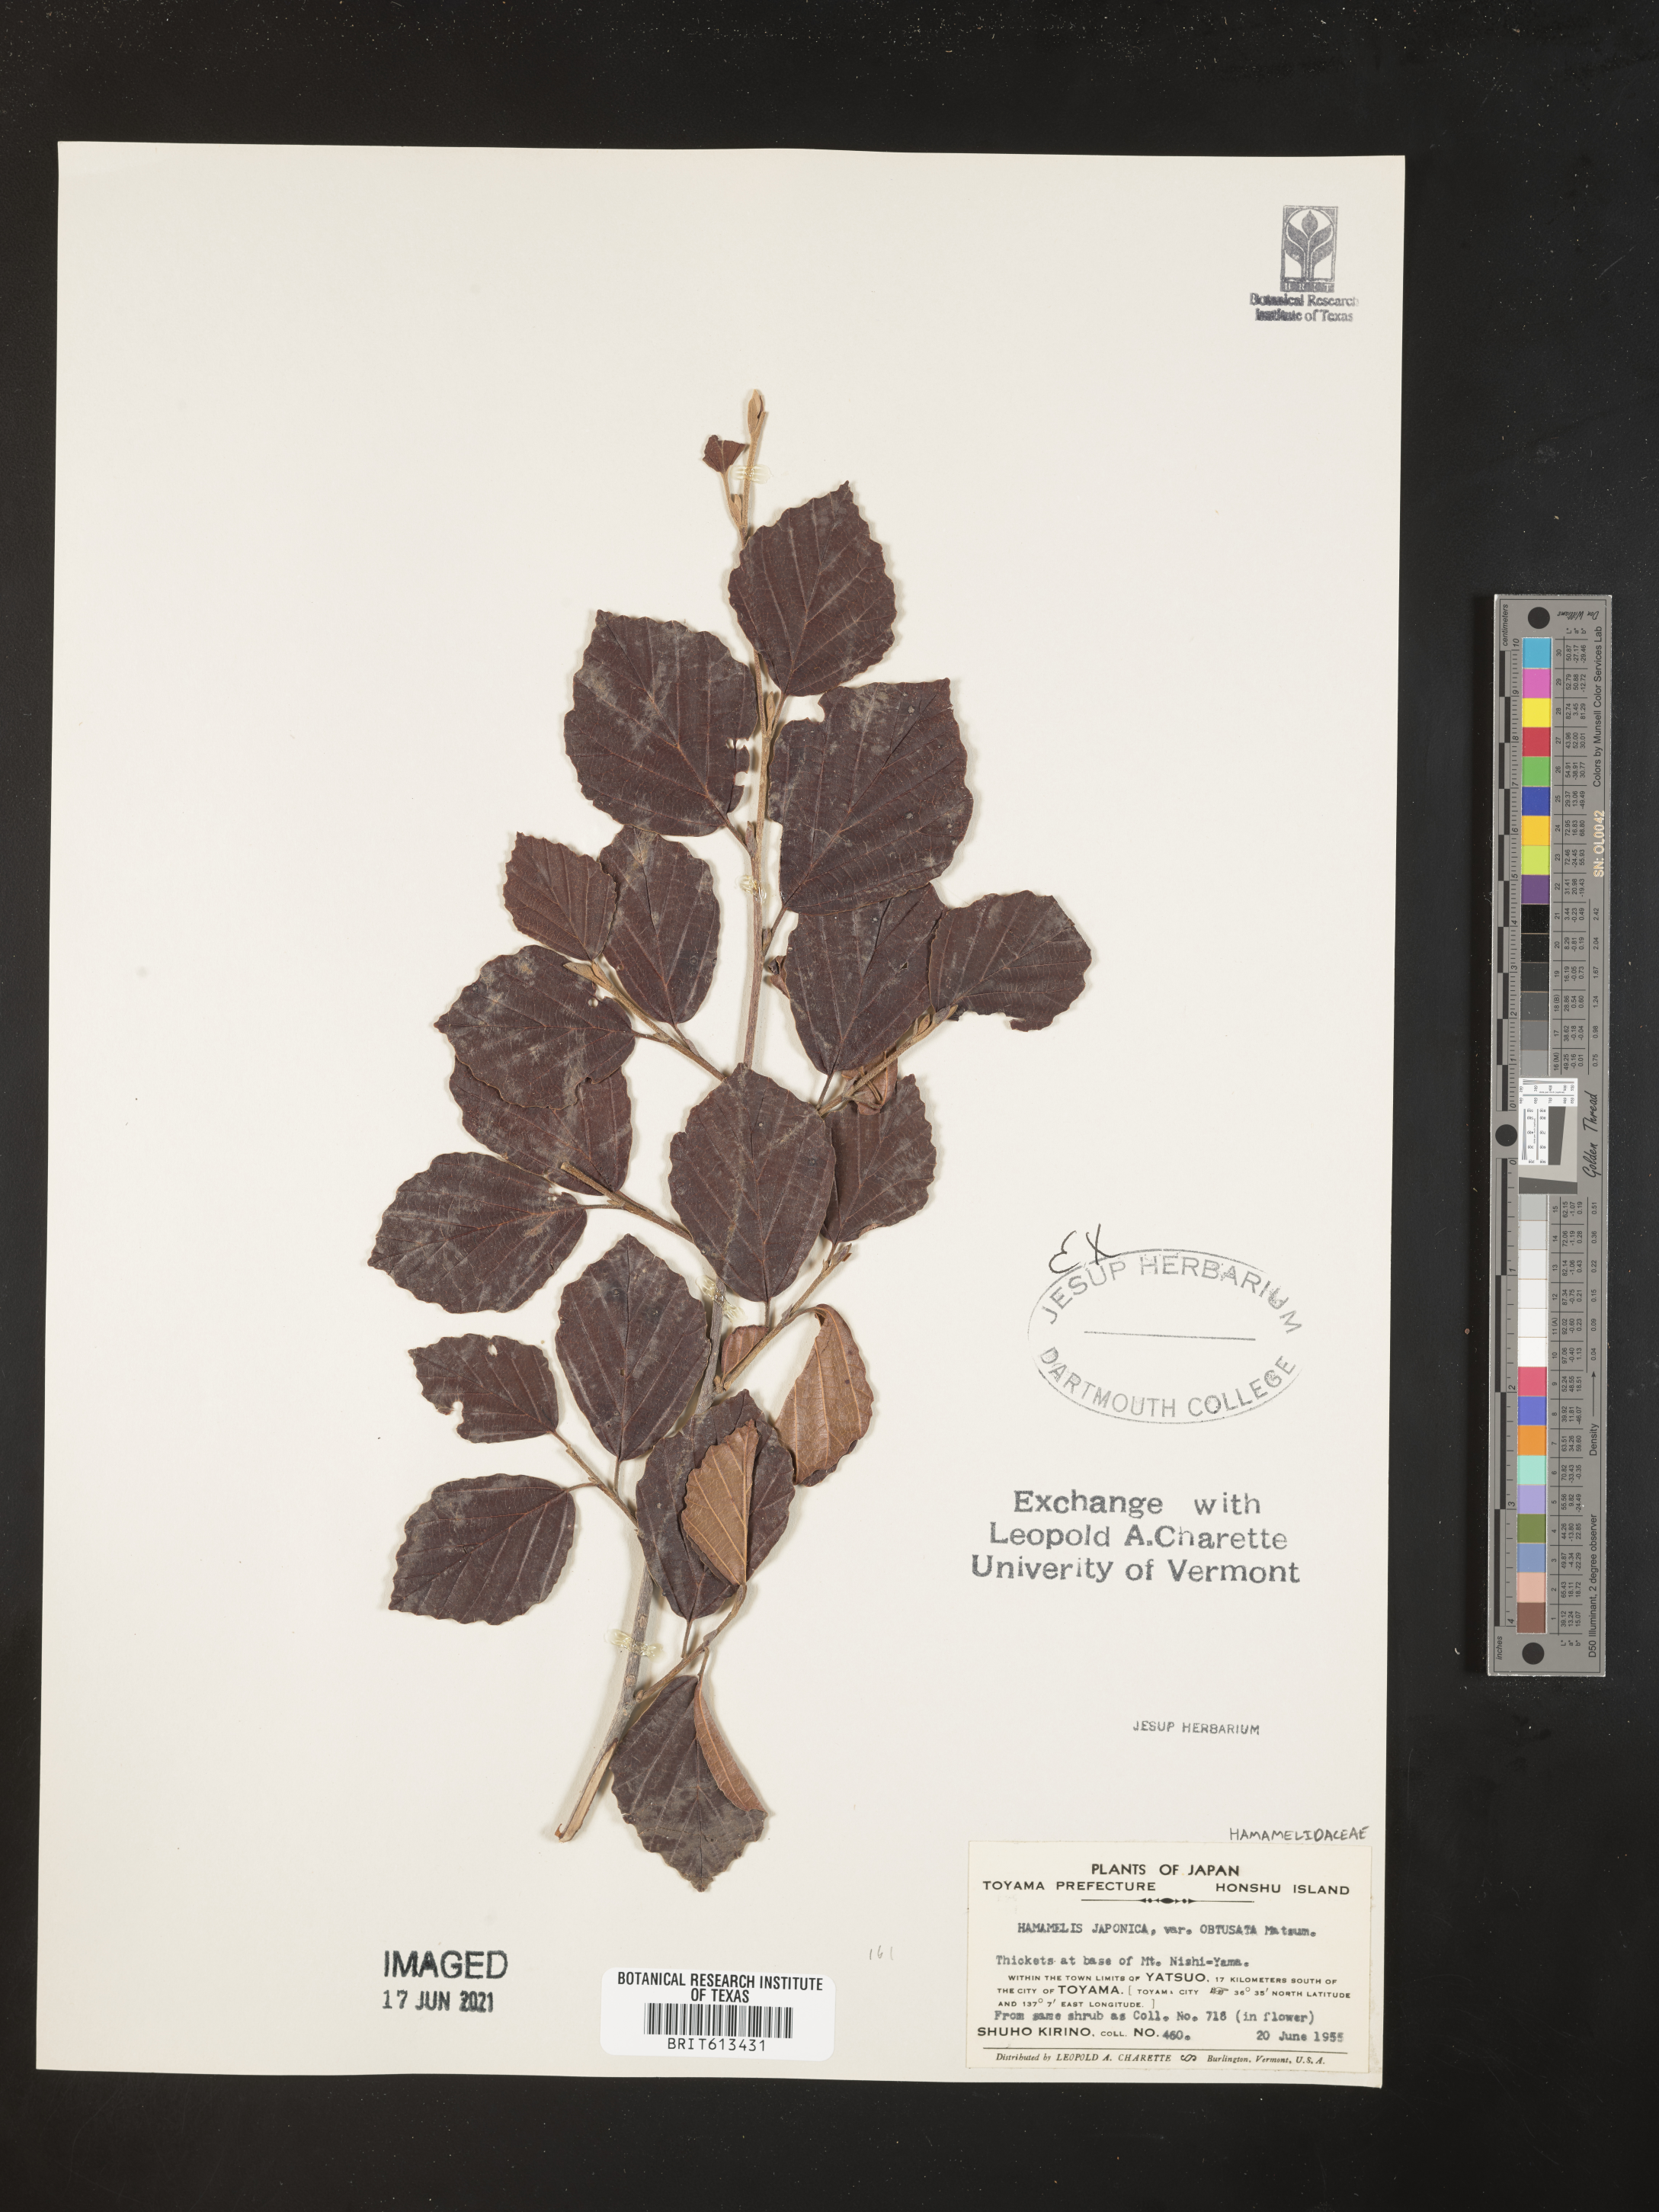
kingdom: Plantae
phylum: Tracheophyta
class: Magnoliopsida
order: Saxifragales
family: Hamamelidaceae
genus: Hamamelis
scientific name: Hamamelis japonica
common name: Japanese witch-hazel
